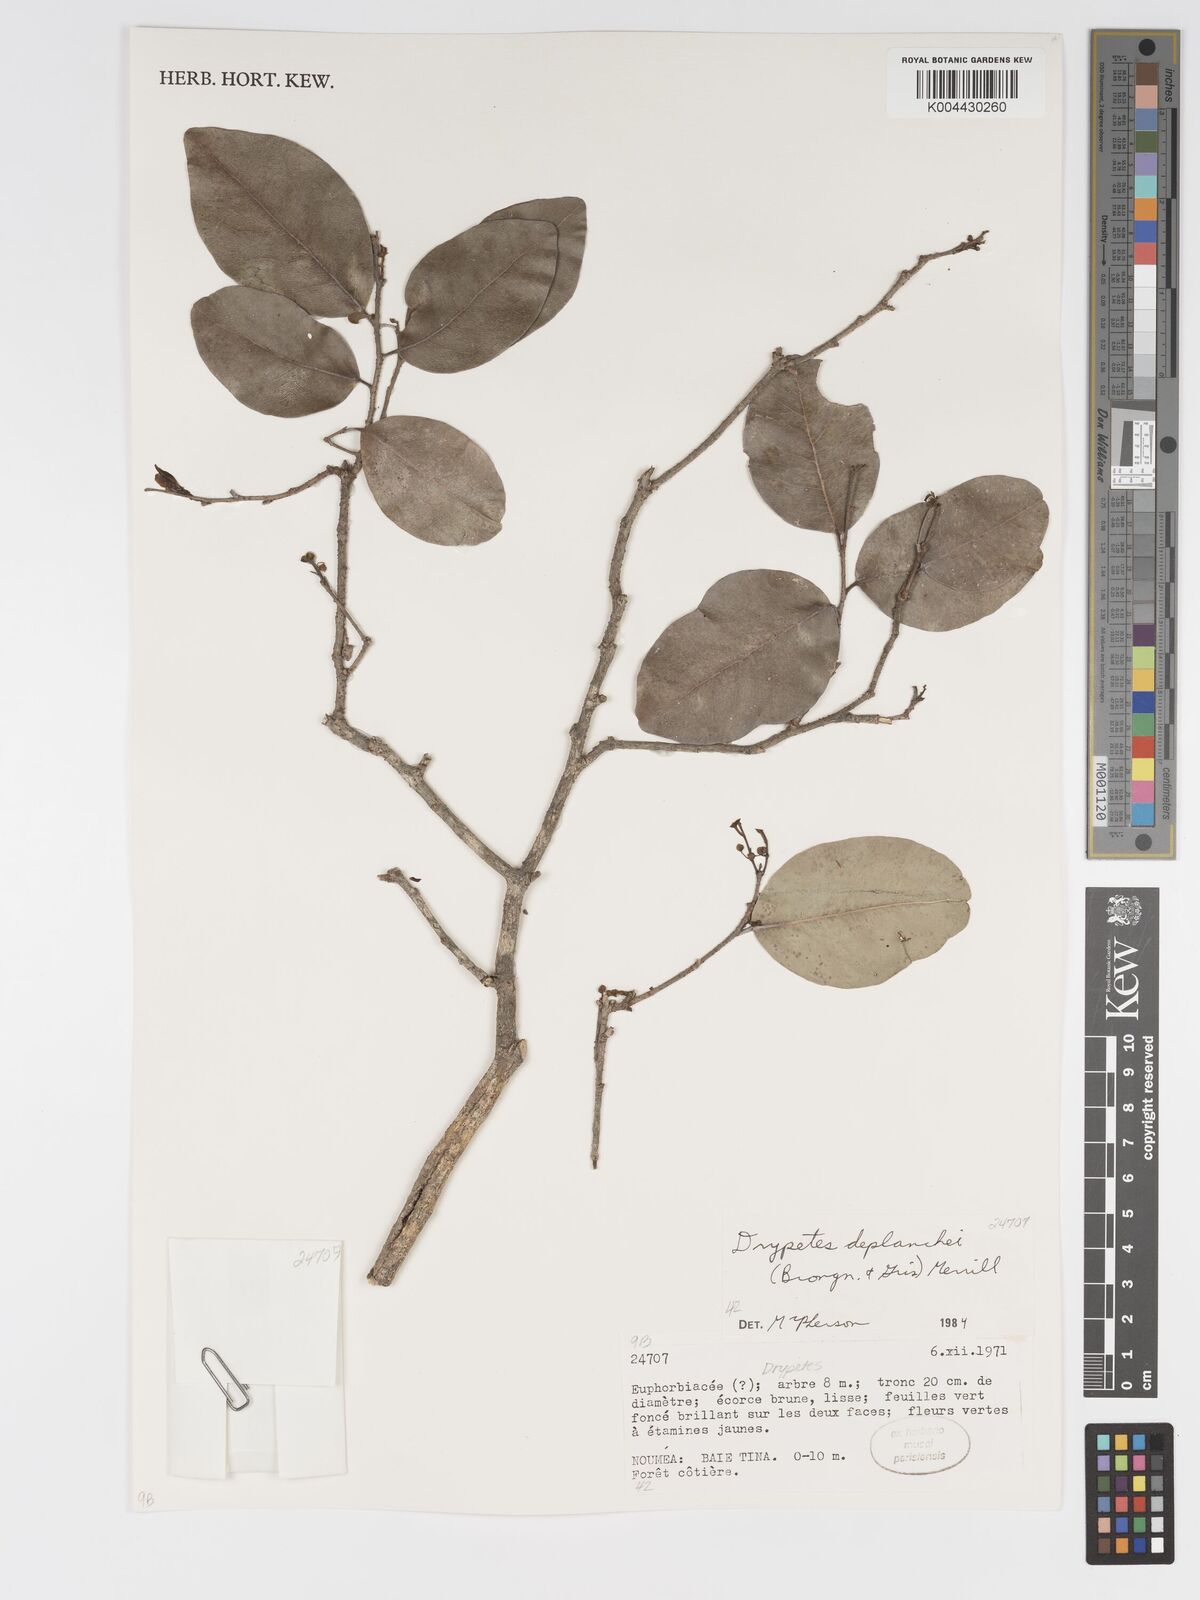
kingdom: Plantae
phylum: Tracheophyta
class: Magnoliopsida
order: Malpighiales
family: Putranjivaceae
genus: Drypetes
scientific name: Drypetes deplanchei
